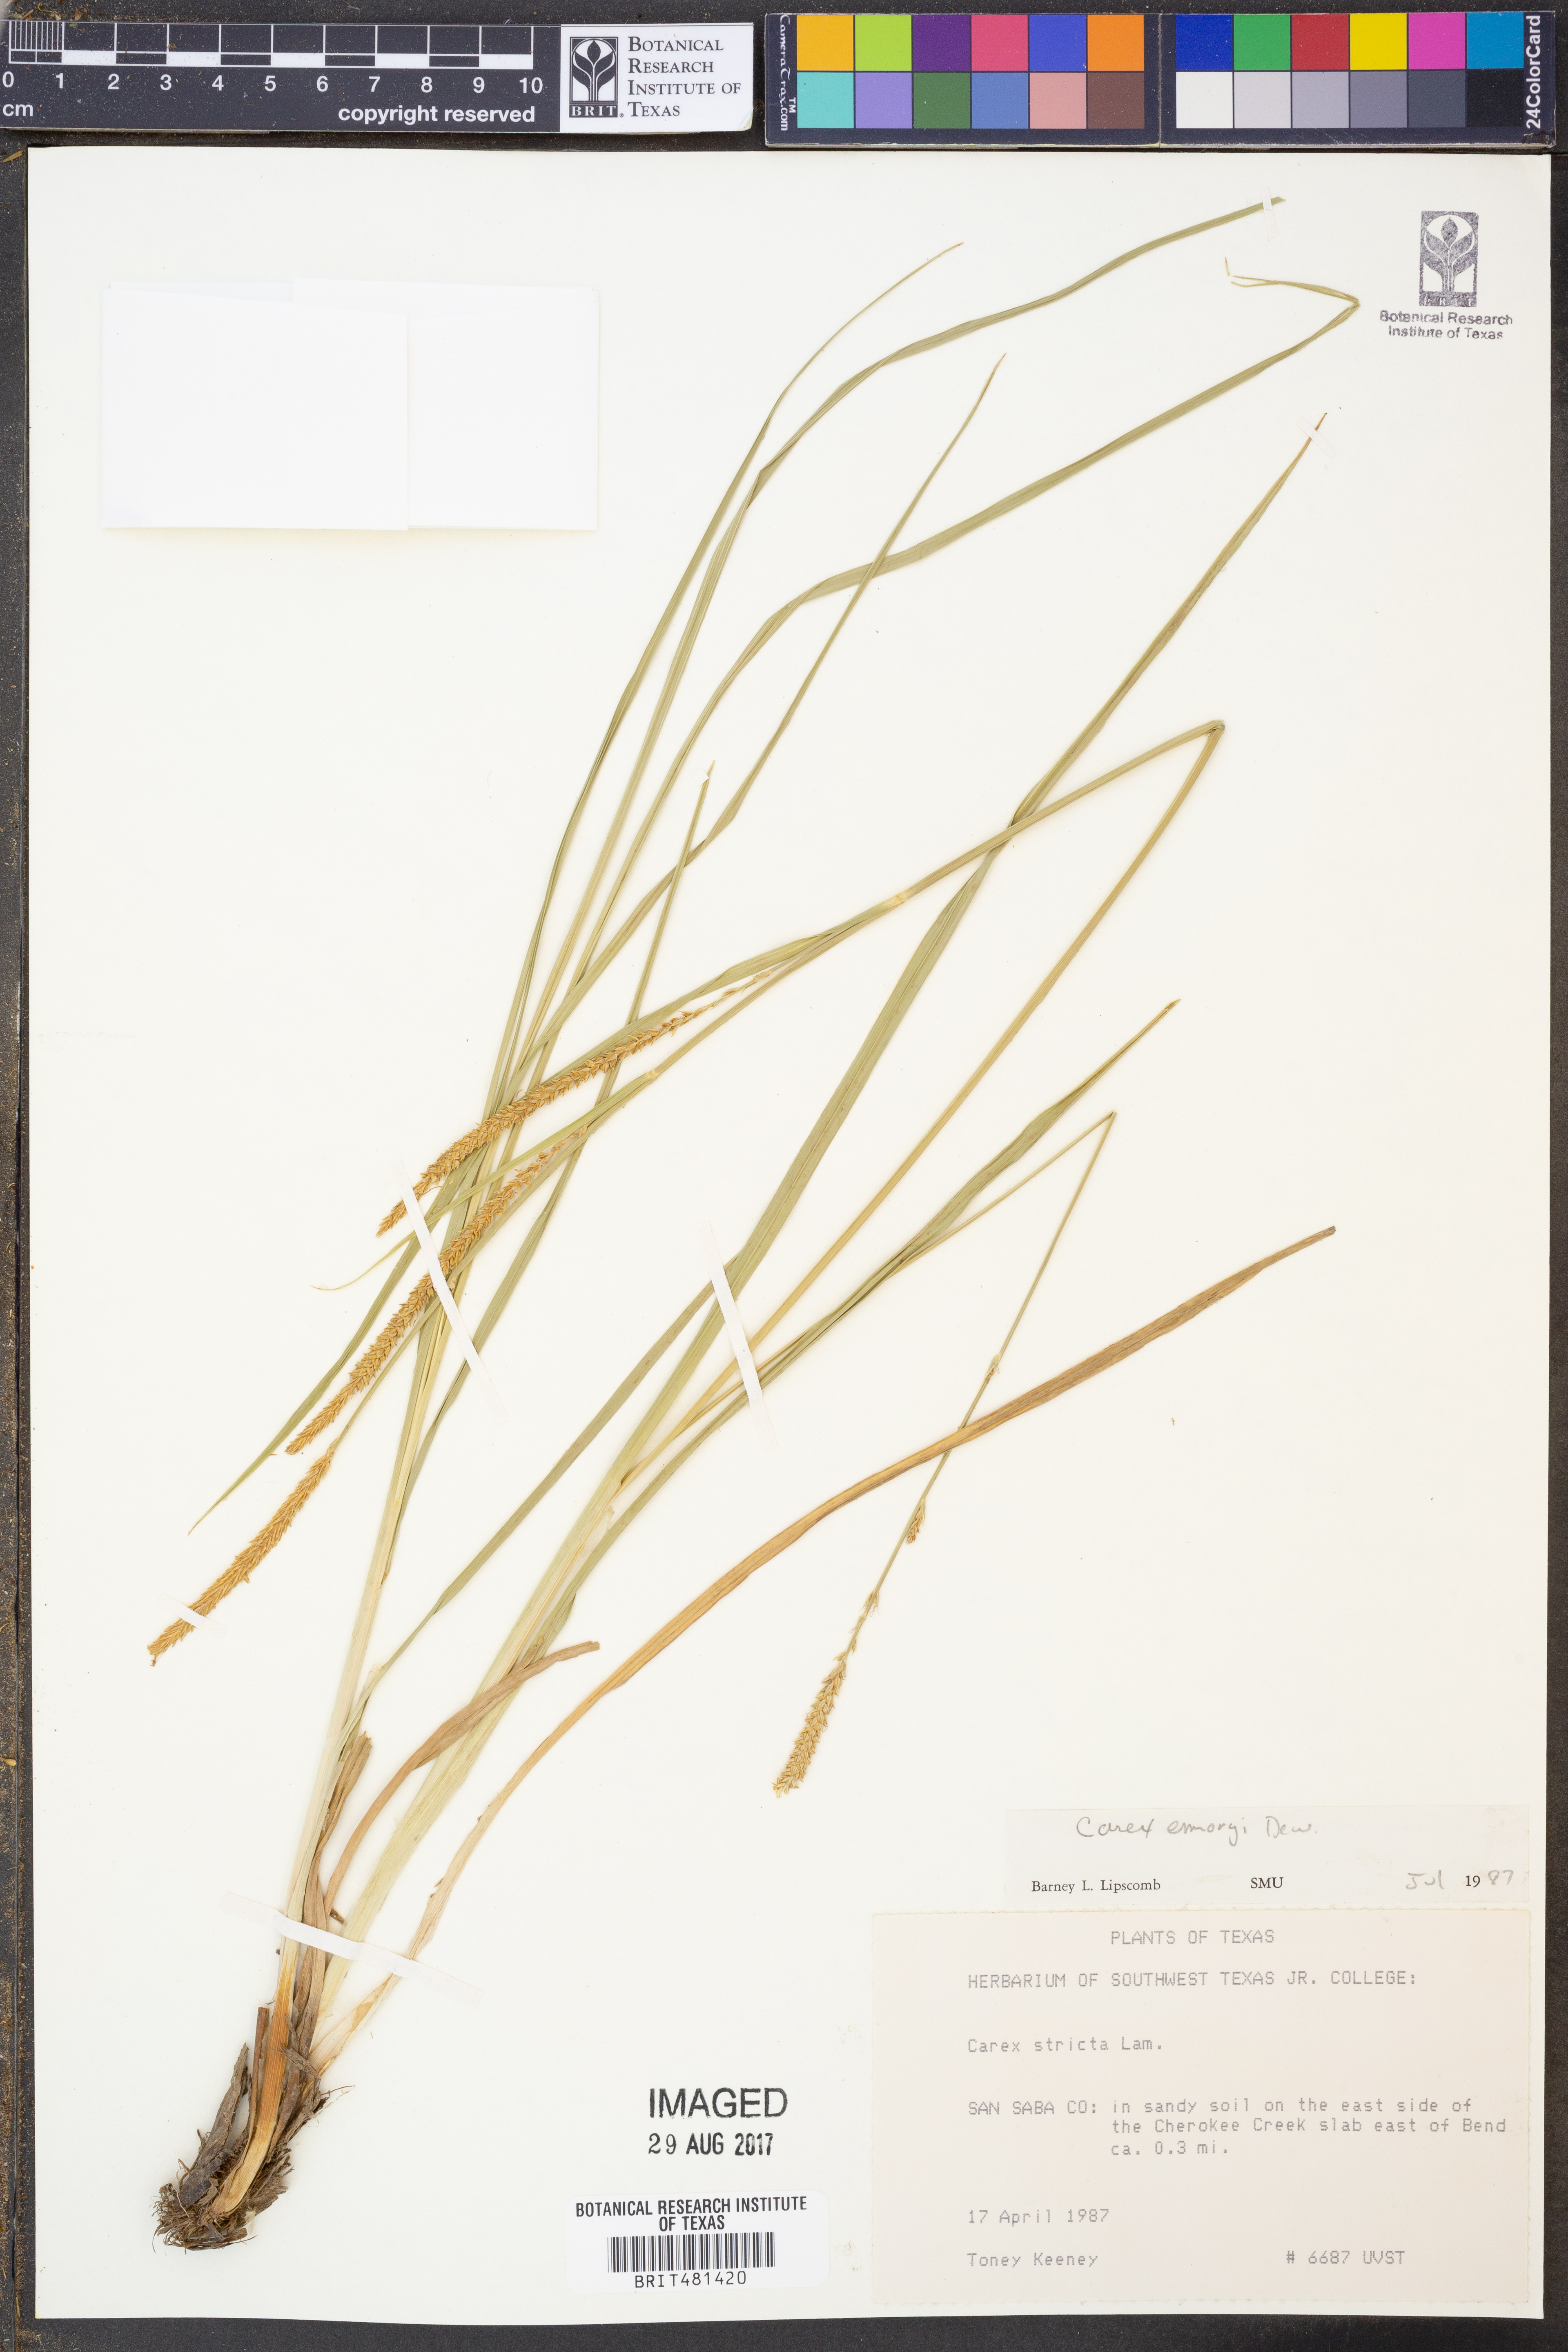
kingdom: Plantae
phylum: Tracheophyta
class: Liliopsida
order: Poales
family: Cyperaceae
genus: Carex
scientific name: Carex emoryi
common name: Emory's sedge
